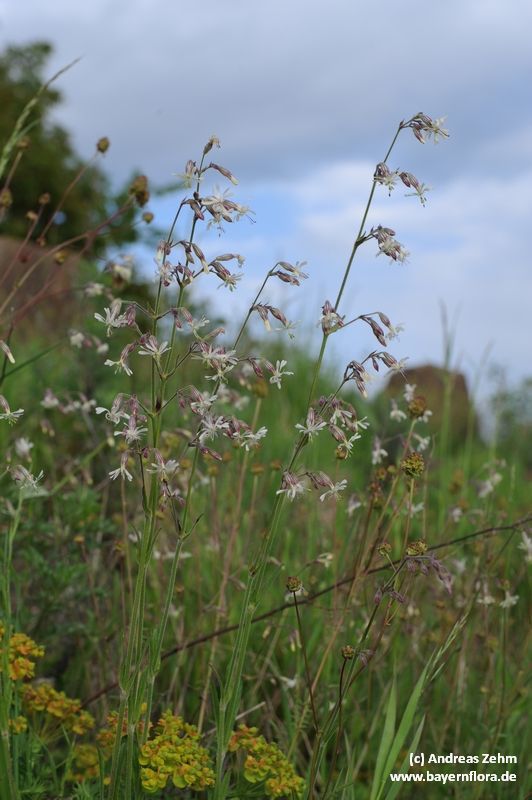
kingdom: Plantae
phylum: Tracheophyta
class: Magnoliopsida
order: Caryophyllales
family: Caryophyllaceae
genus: Silene
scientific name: Silene nutans
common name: Nottingham catchfly
